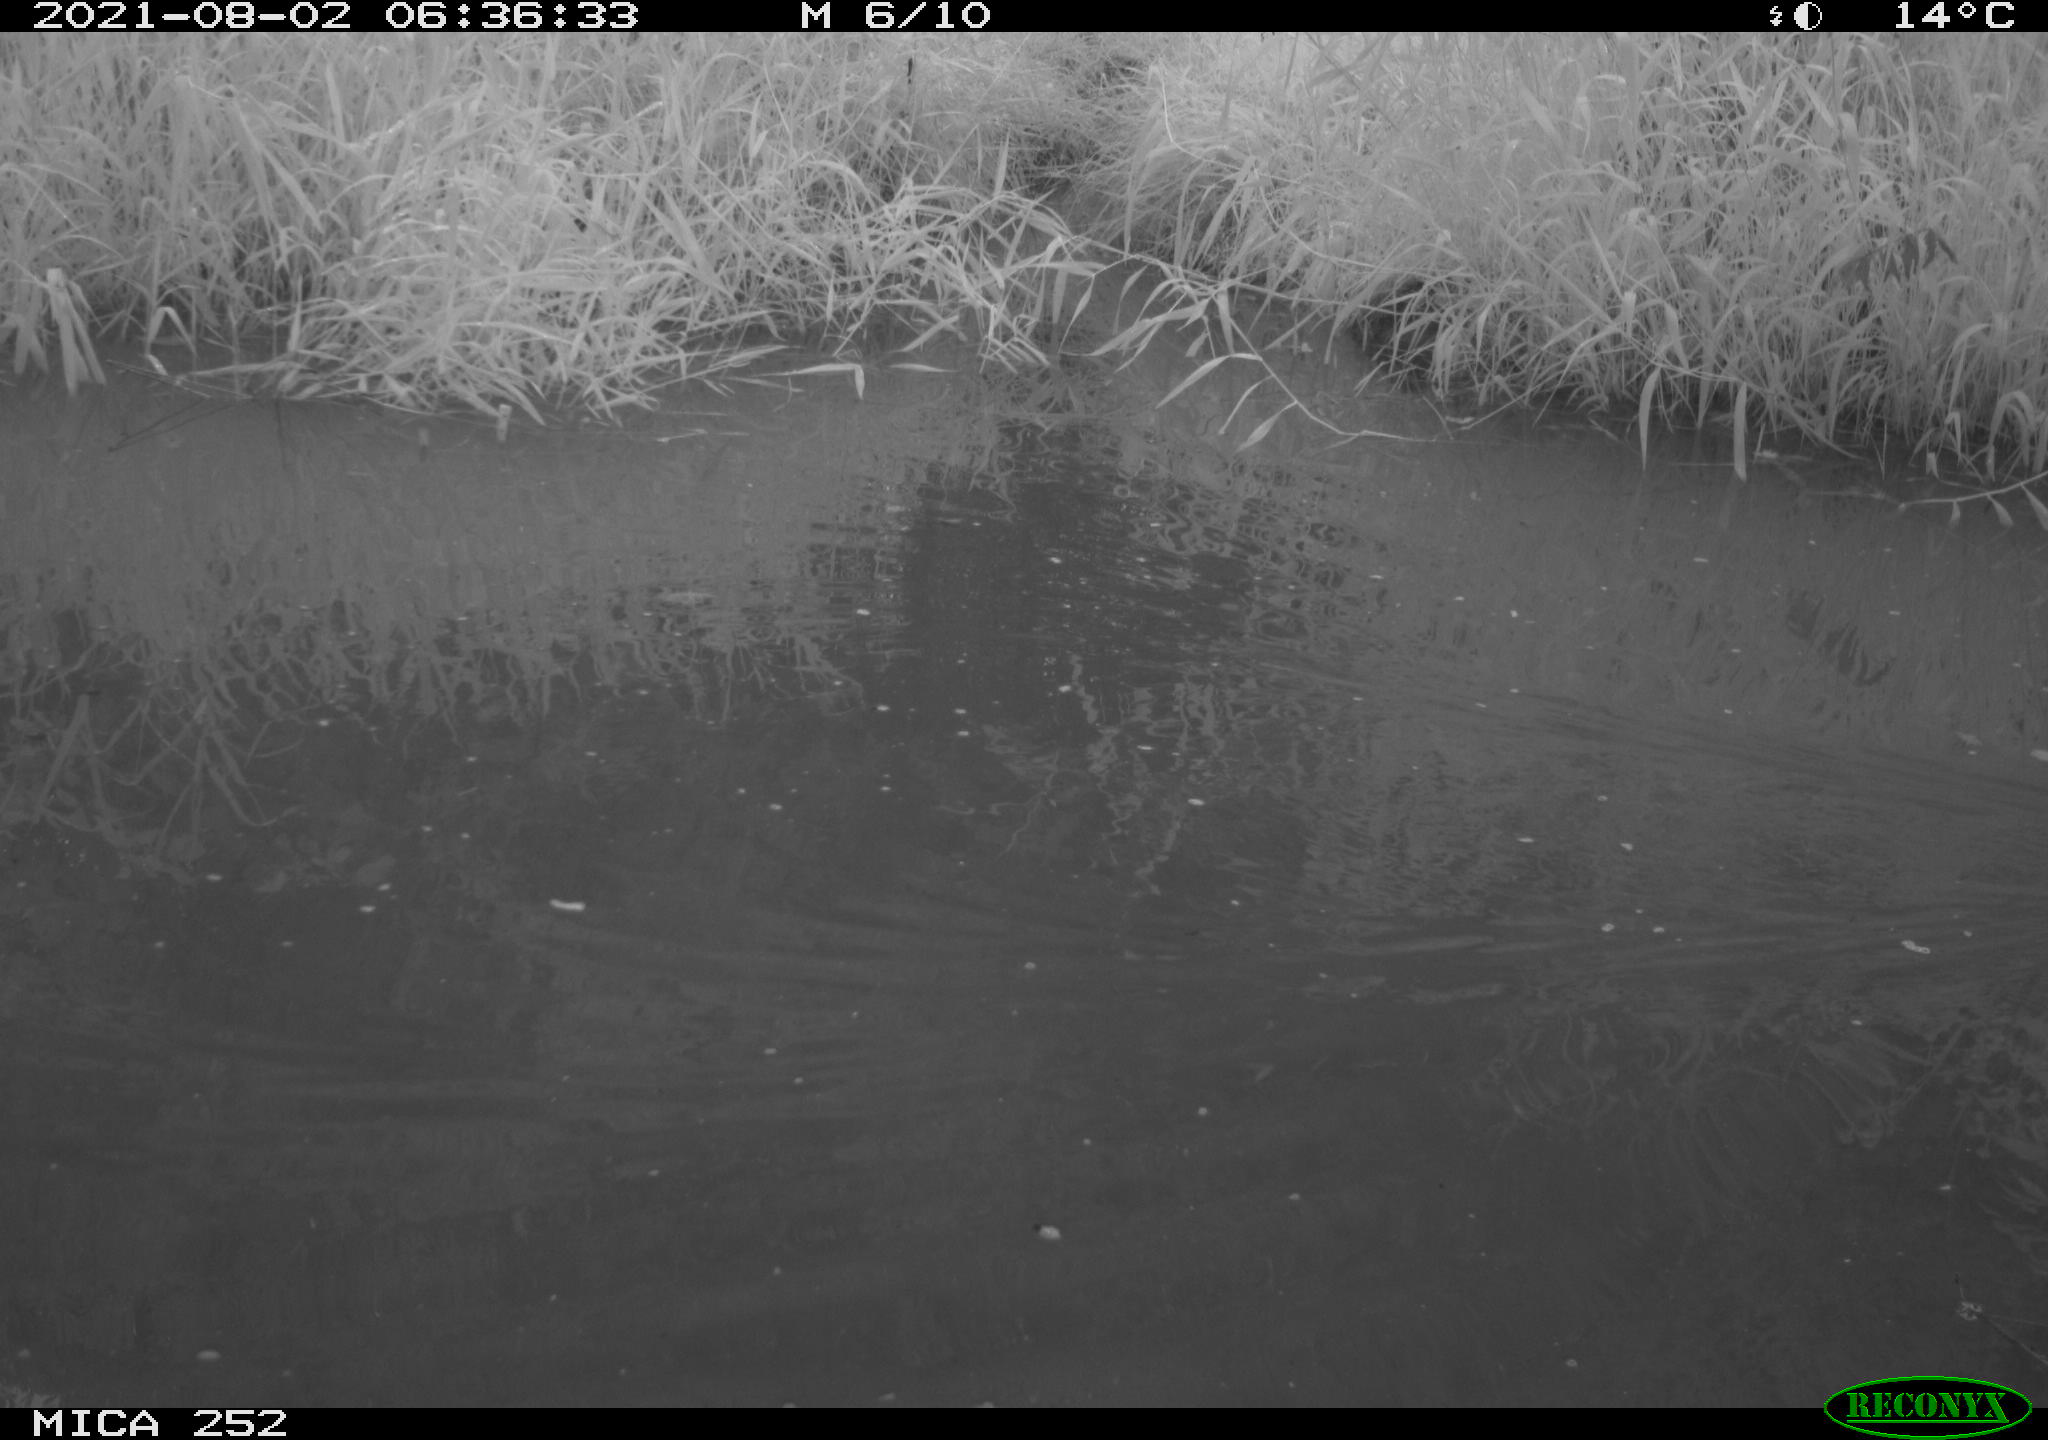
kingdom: Animalia
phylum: Chordata
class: Aves
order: Anseriformes
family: Anatidae
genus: Mareca
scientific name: Mareca strepera
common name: Gadwall
